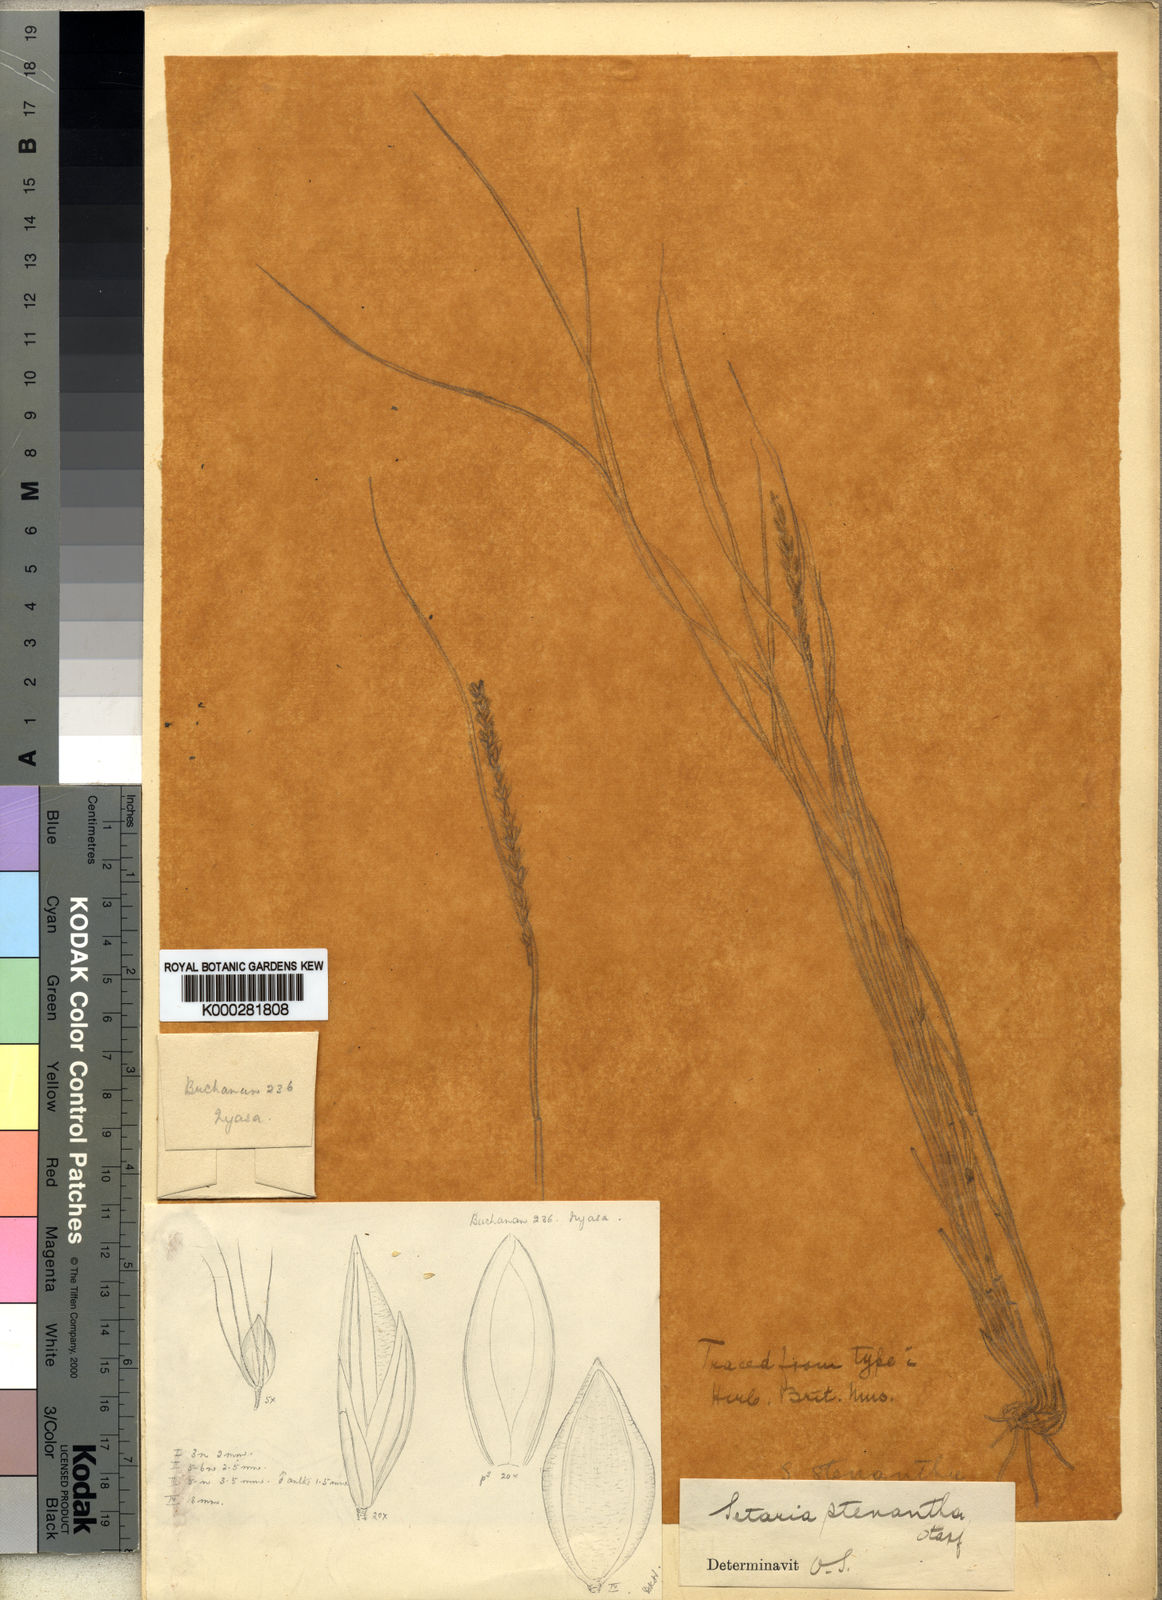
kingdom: Plantae
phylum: Tracheophyta
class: Liliopsida
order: Poales
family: Poaceae
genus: Setaria
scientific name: Setaria sphacelata
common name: African bristlegrass
